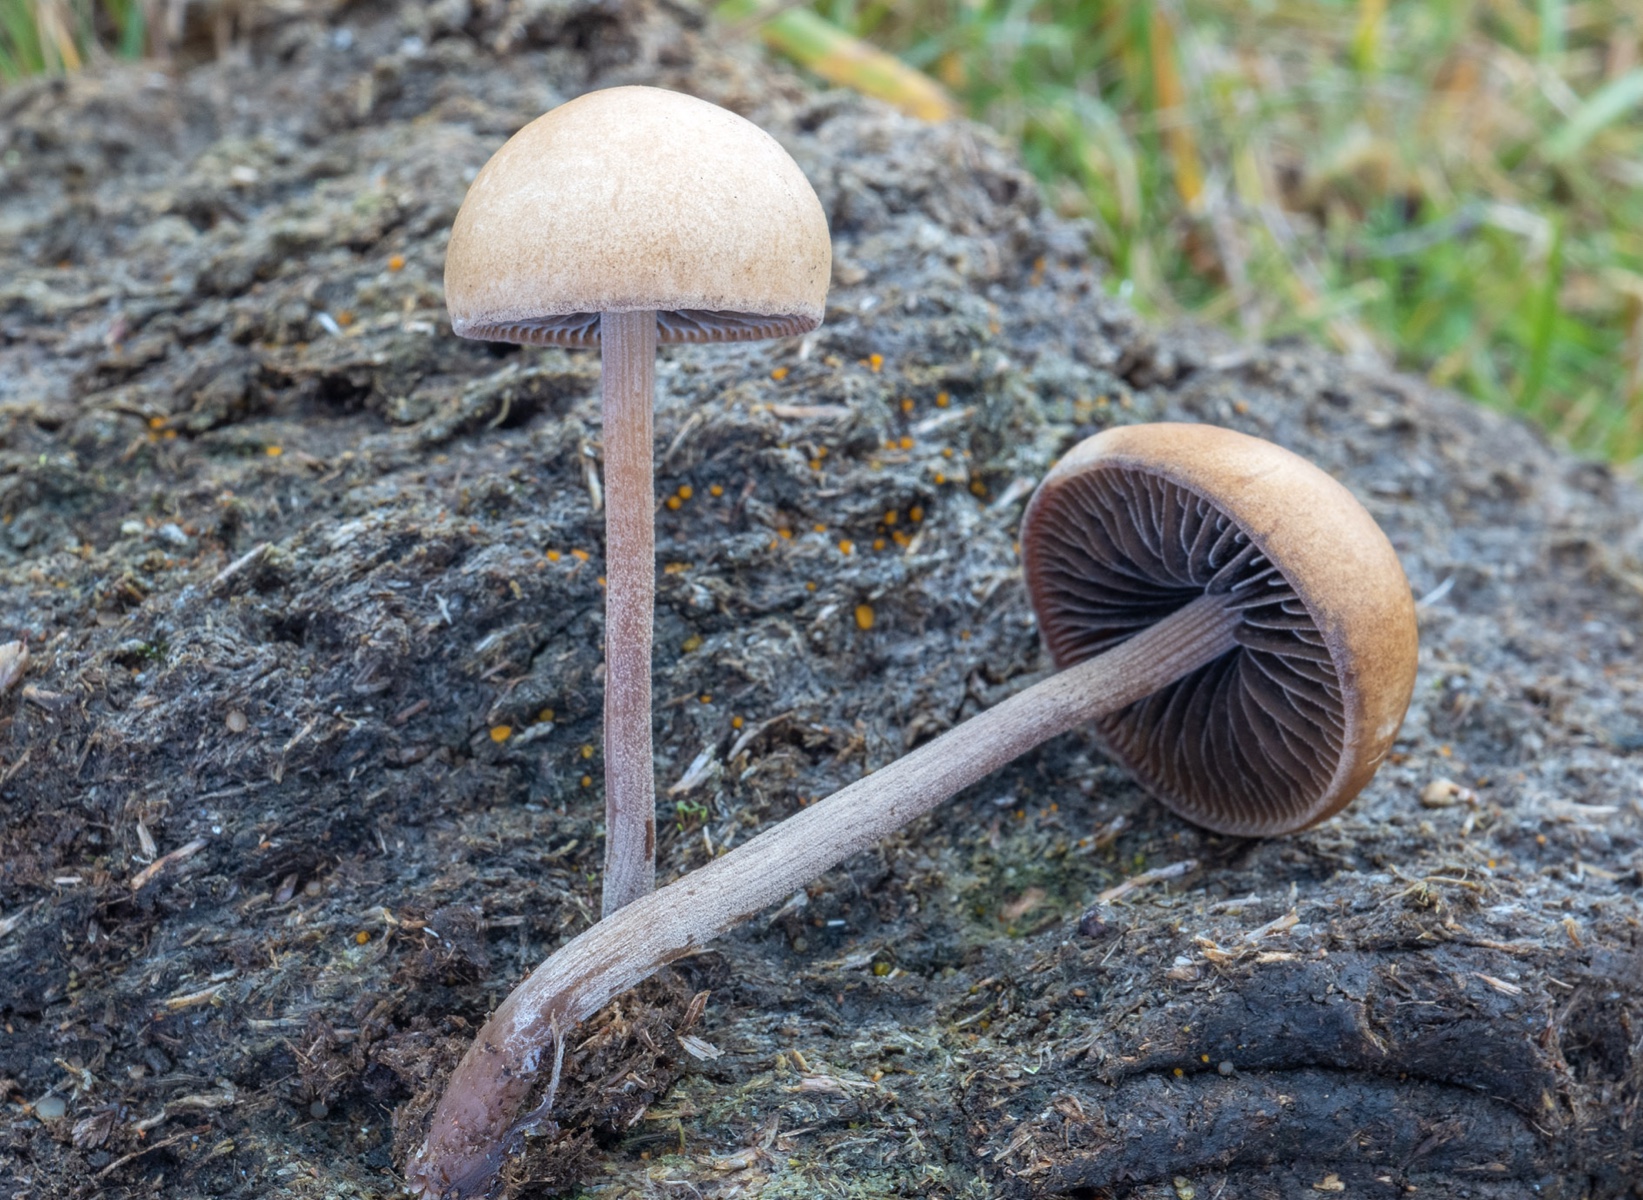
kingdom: Fungi
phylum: Basidiomycota
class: Agaricomycetes
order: Agaricales
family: Bolbitiaceae
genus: Panaeolus
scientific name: Panaeolus subfirmus
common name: fælled-glanshat
